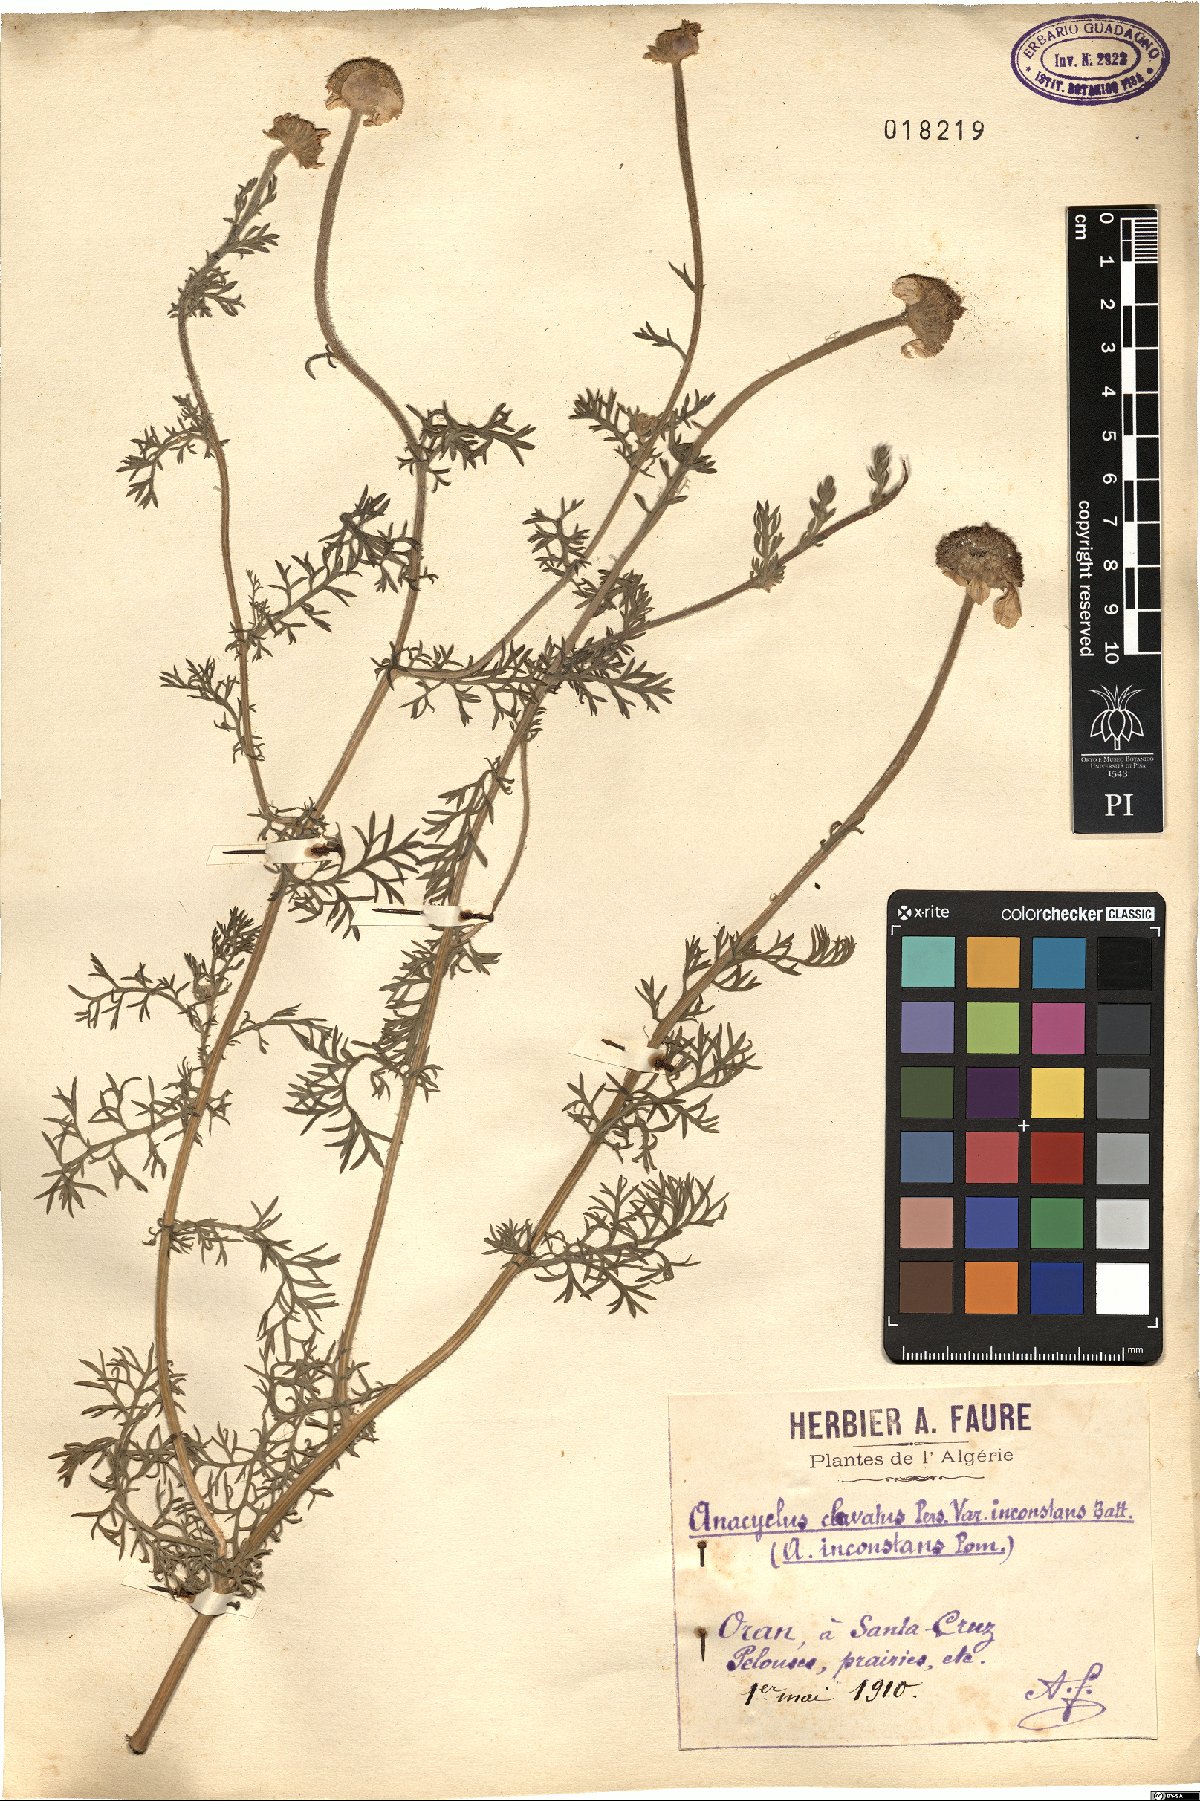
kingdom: Plantae
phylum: Tracheophyta
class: Magnoliopsida
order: Asterales
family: Asteraceae
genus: Anacyclus
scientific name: Anacyclus inconstans
